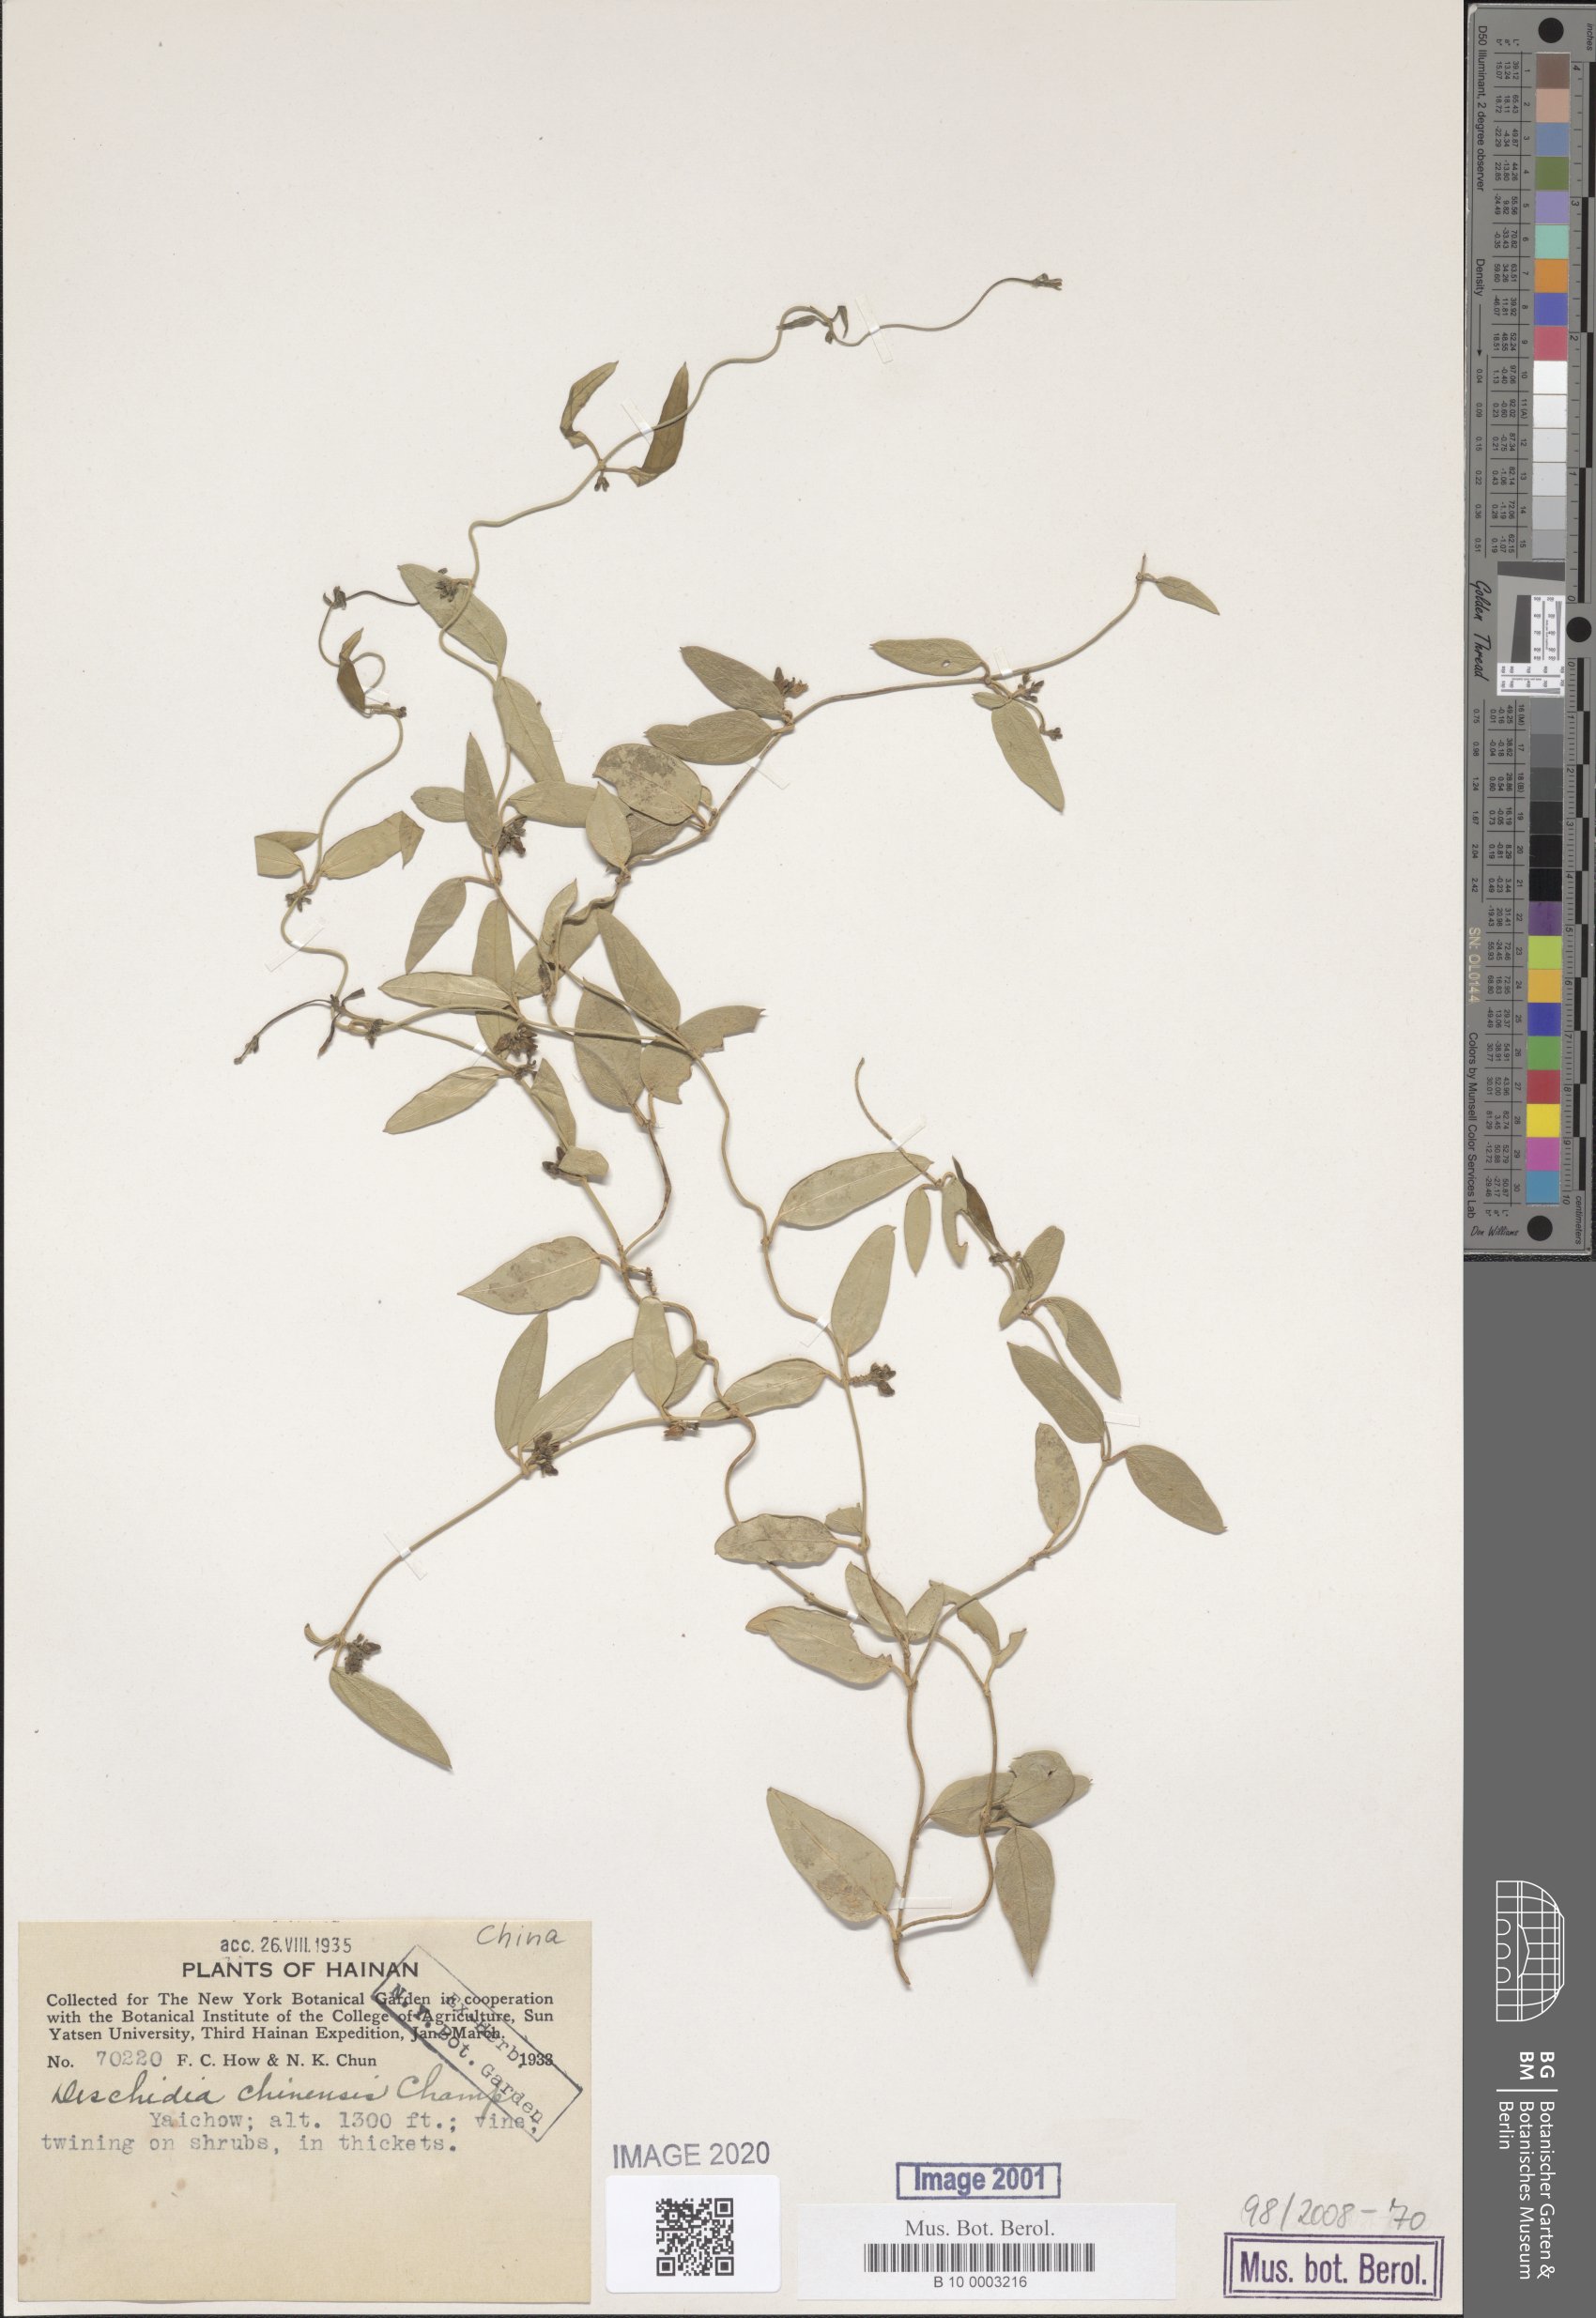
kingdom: Plantae
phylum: Tracheophyta
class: Magnoliopsida
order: Gentianales
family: Apocynaceae
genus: Dischidia
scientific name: Dischidia chinensis
